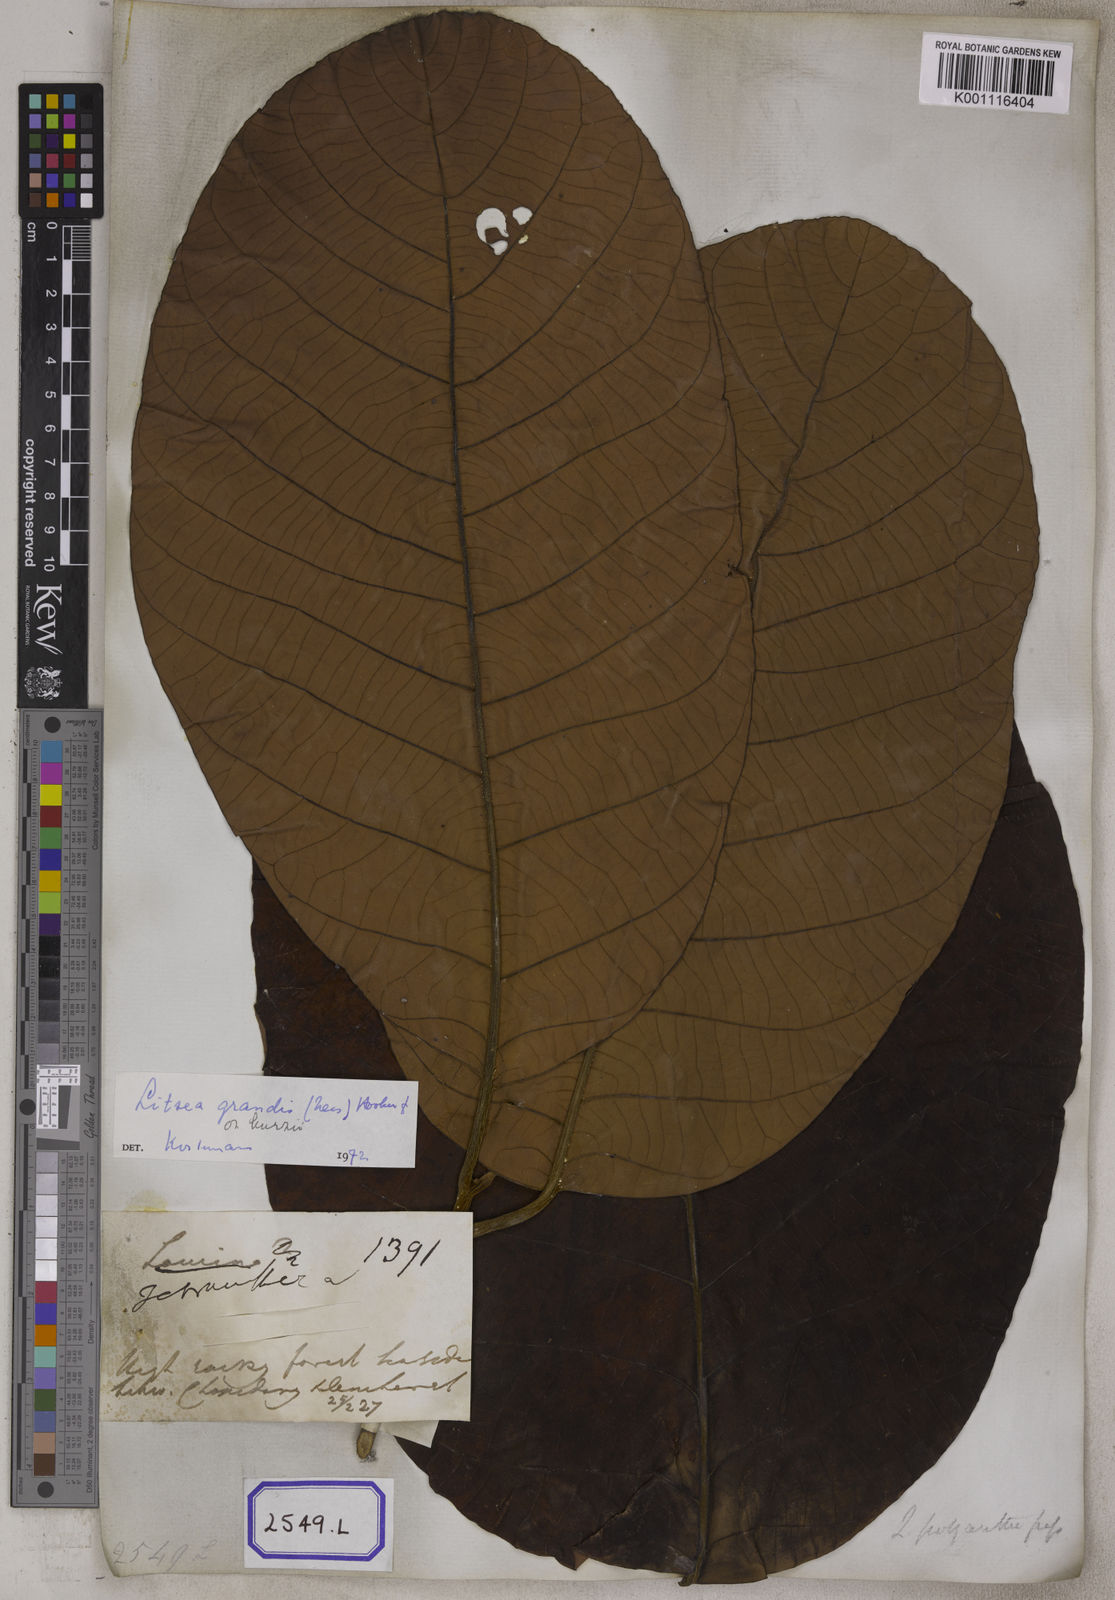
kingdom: Plantae
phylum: Tracheophyta
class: Magnoliopsida
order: Laurales
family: Lauraceae
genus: Litsea
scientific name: Litsea
